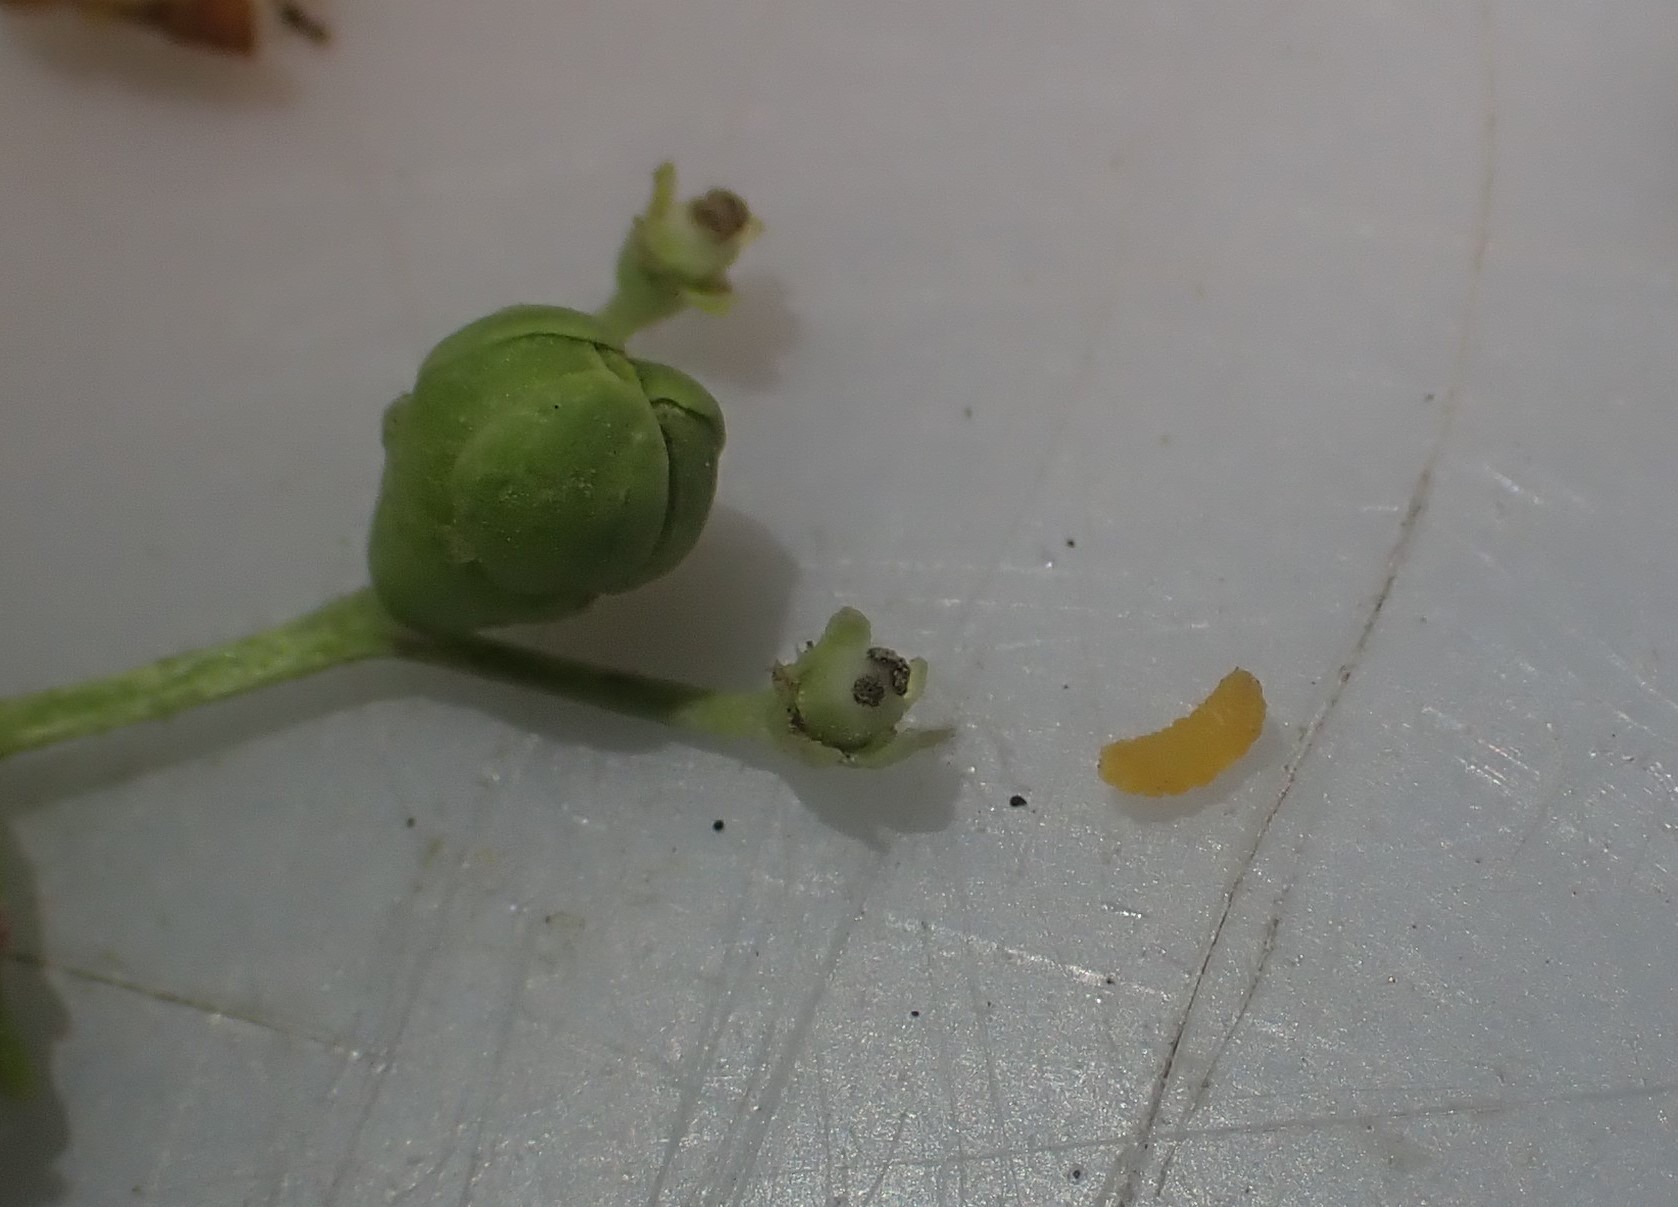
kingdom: Animalia
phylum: Arthropoda
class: Insecta
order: Diptera
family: Cecidomyiidae
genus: Placochela
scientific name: Placochela nigripes
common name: Hyldeblomstgalmyg
